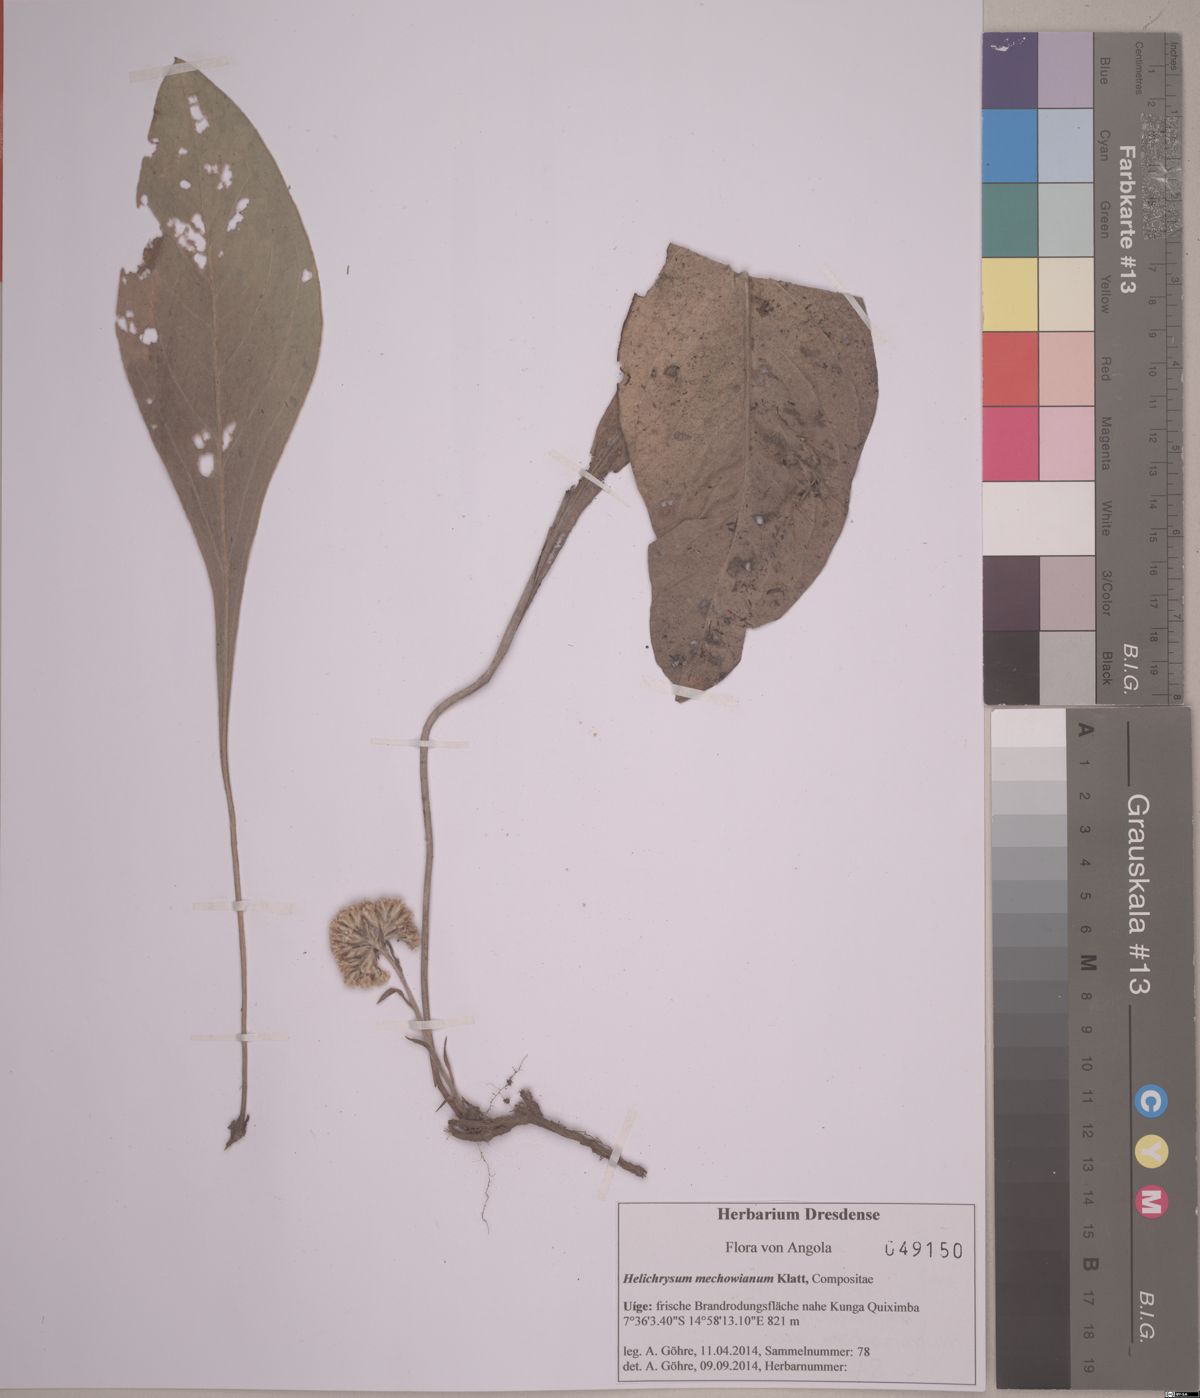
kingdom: Plantae
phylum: Tracheophyta
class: Magnoliopsida
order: Asterales
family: Asteraceae
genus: Helichrysum
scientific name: Helichrysum mechowianum
